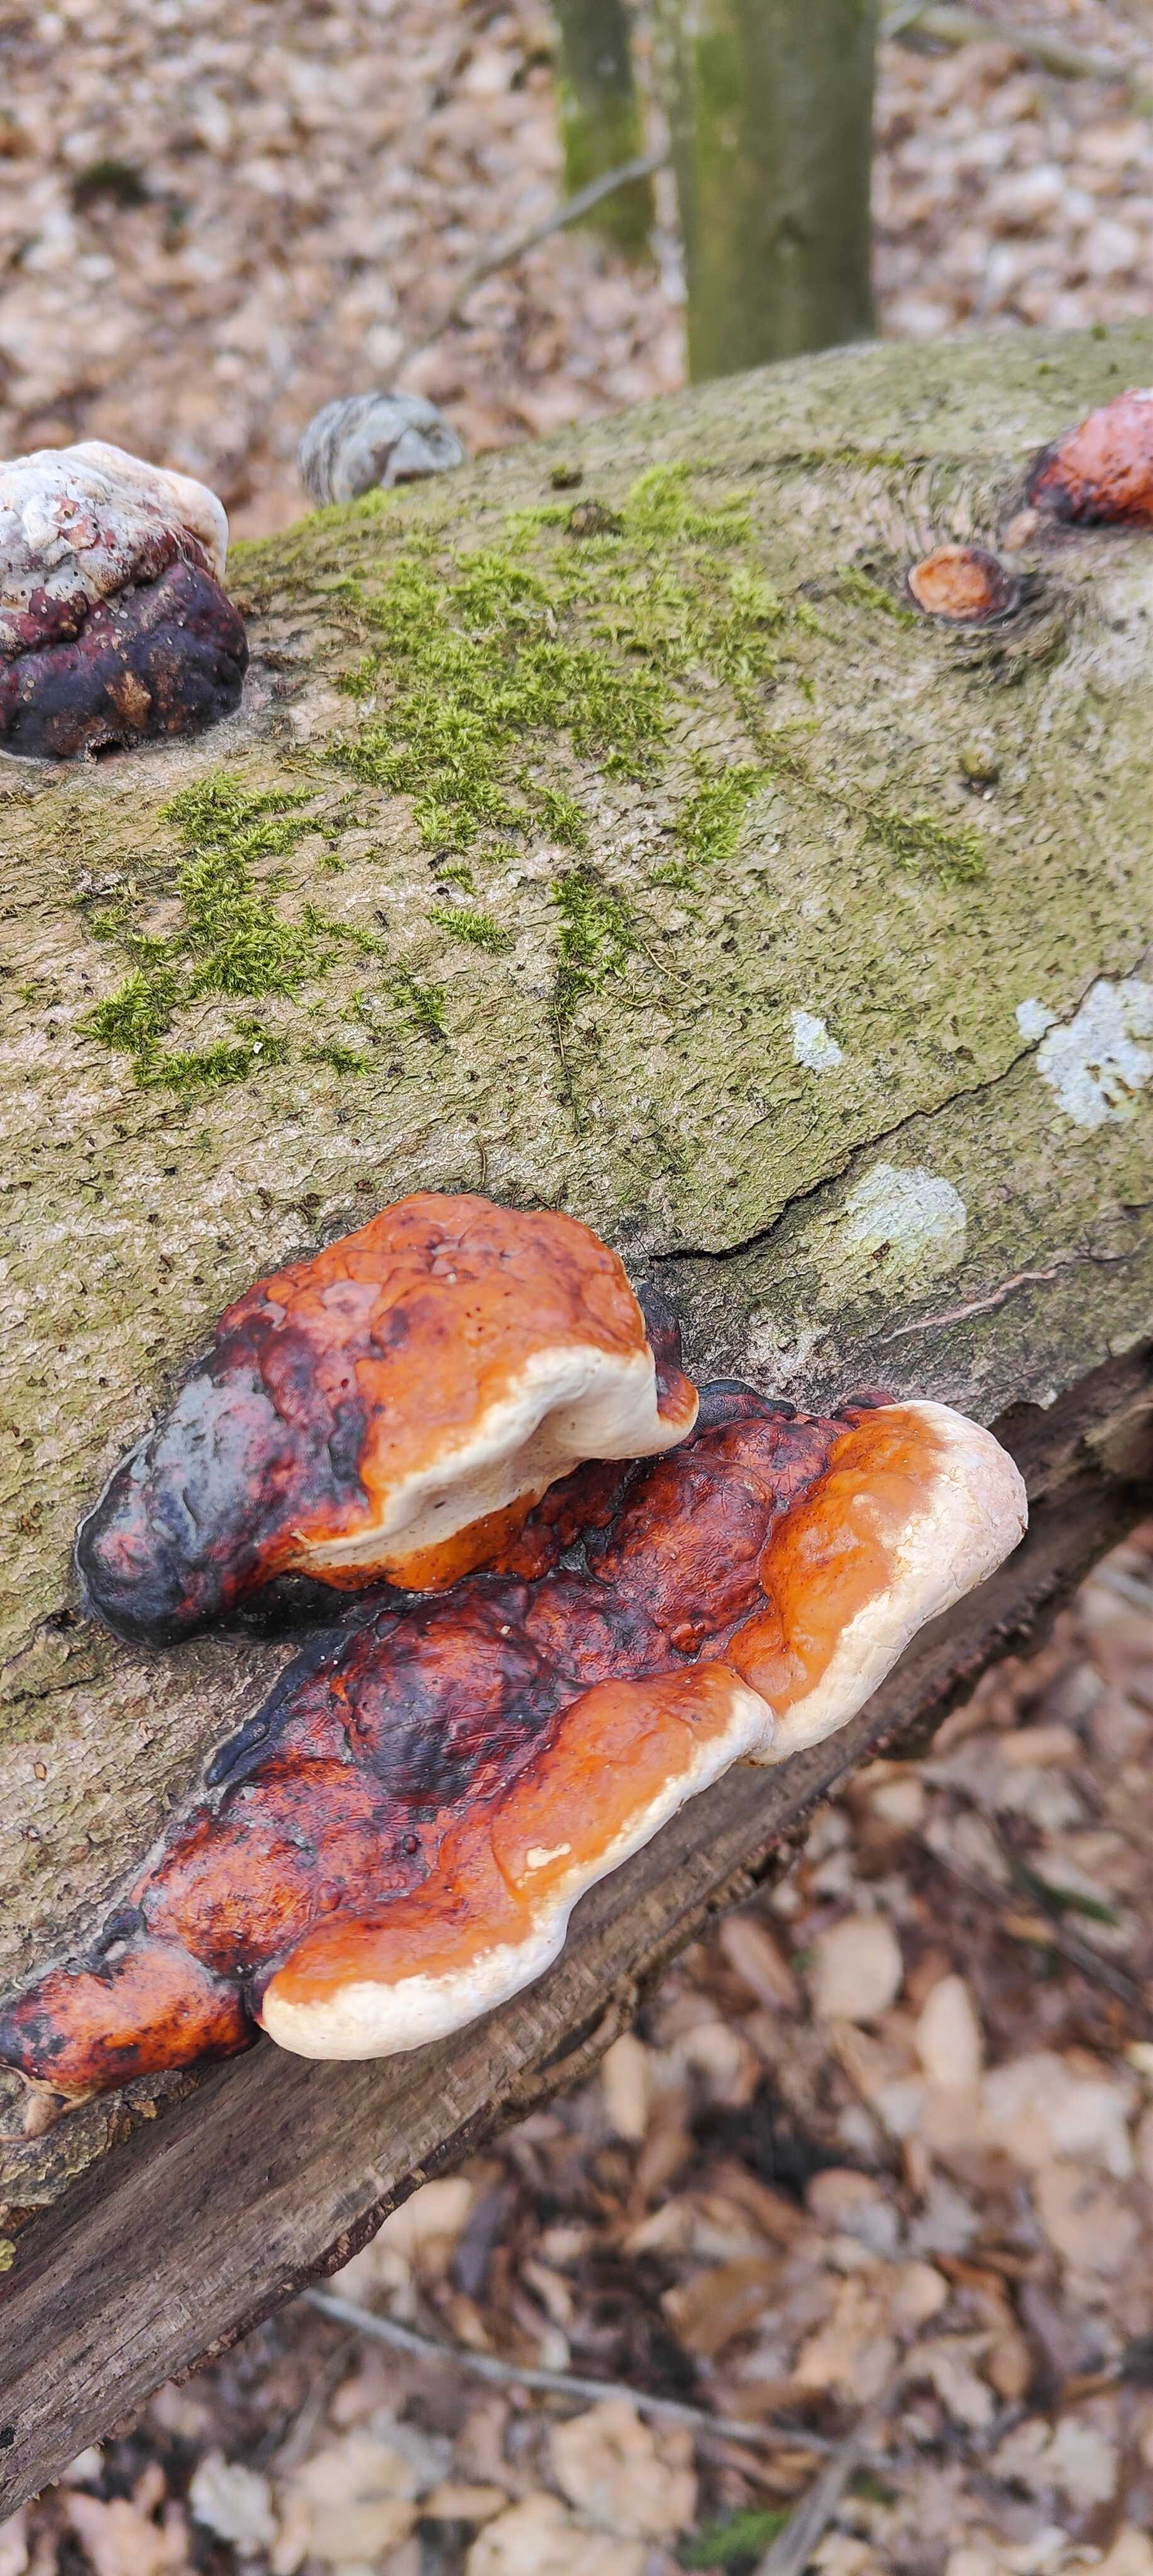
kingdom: Fungi
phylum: Basidiomycota
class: Agaricomycetes
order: Polyporales
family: Fomitopsidaceae
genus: Fomitopsis
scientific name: Fomitopsis pinicola
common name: randbæltet hovporesvamp
